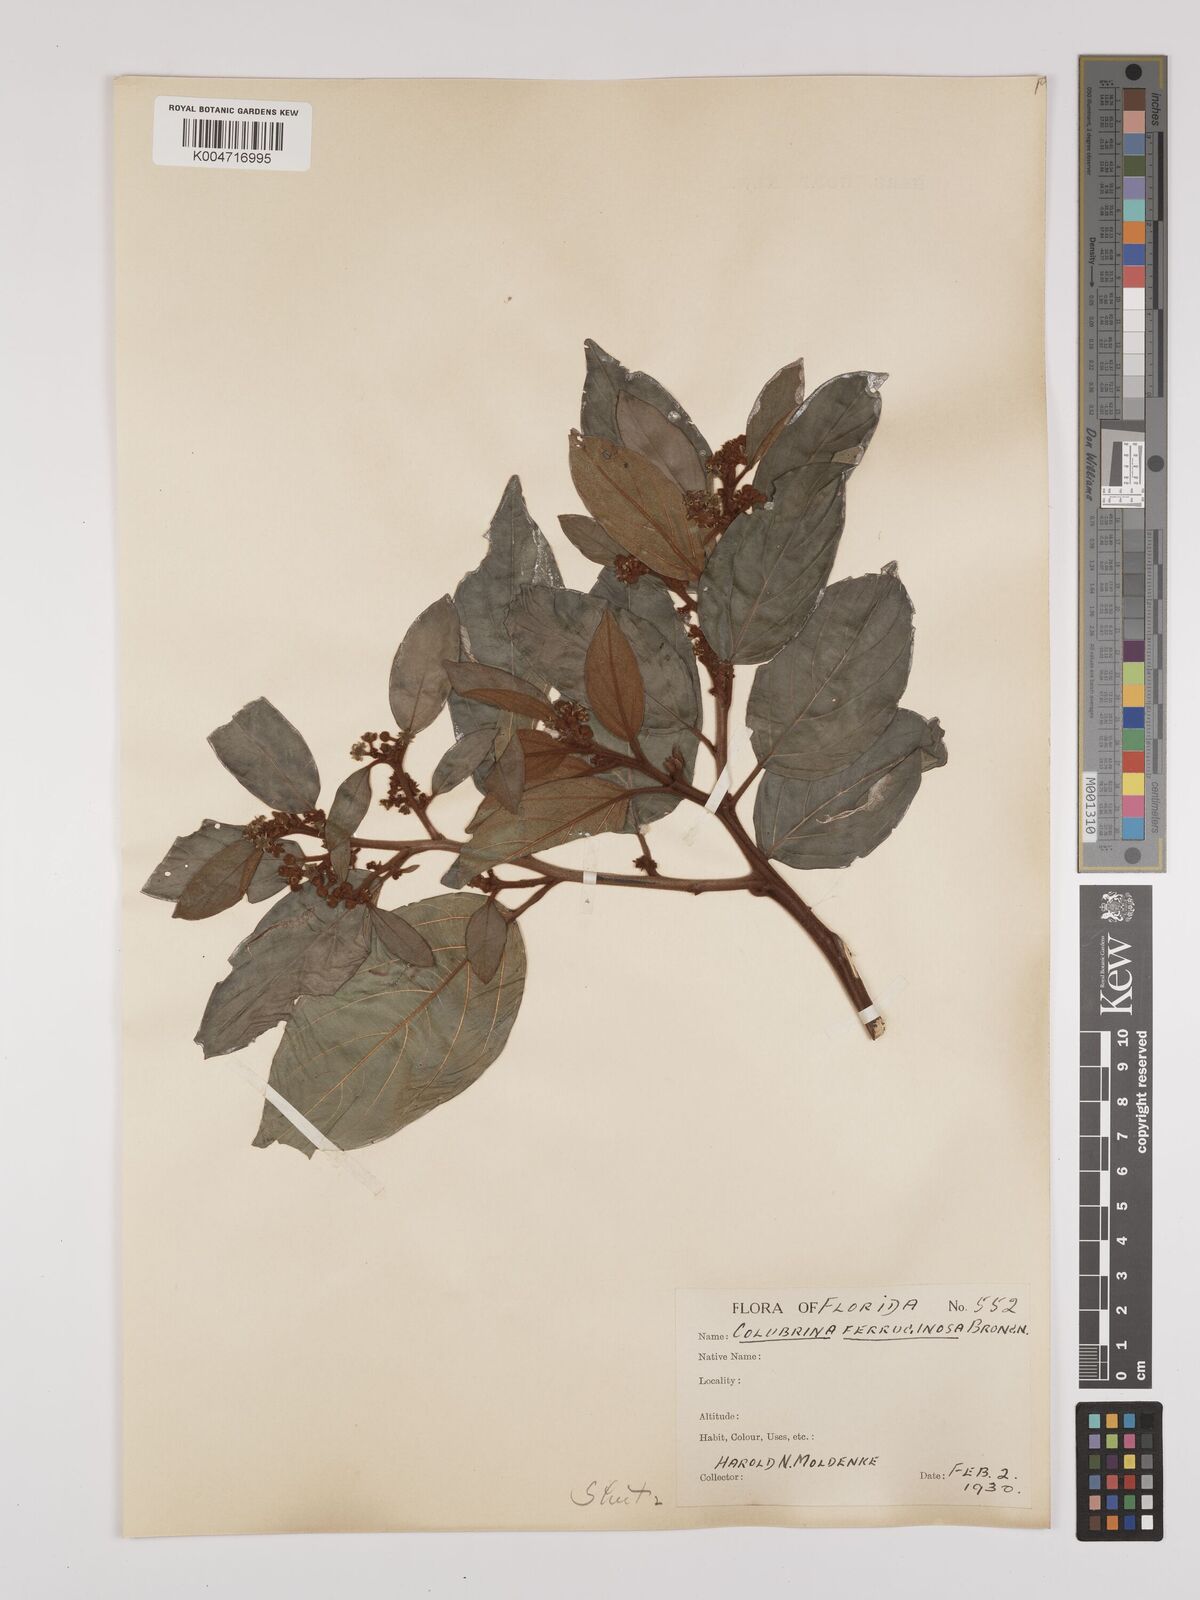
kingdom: Plantae
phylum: Tracheophyta
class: Magnoliopsida
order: Rosales
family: Rhamnaceae
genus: Colubrina
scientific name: Colubrina arborescens
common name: Wild coffee
